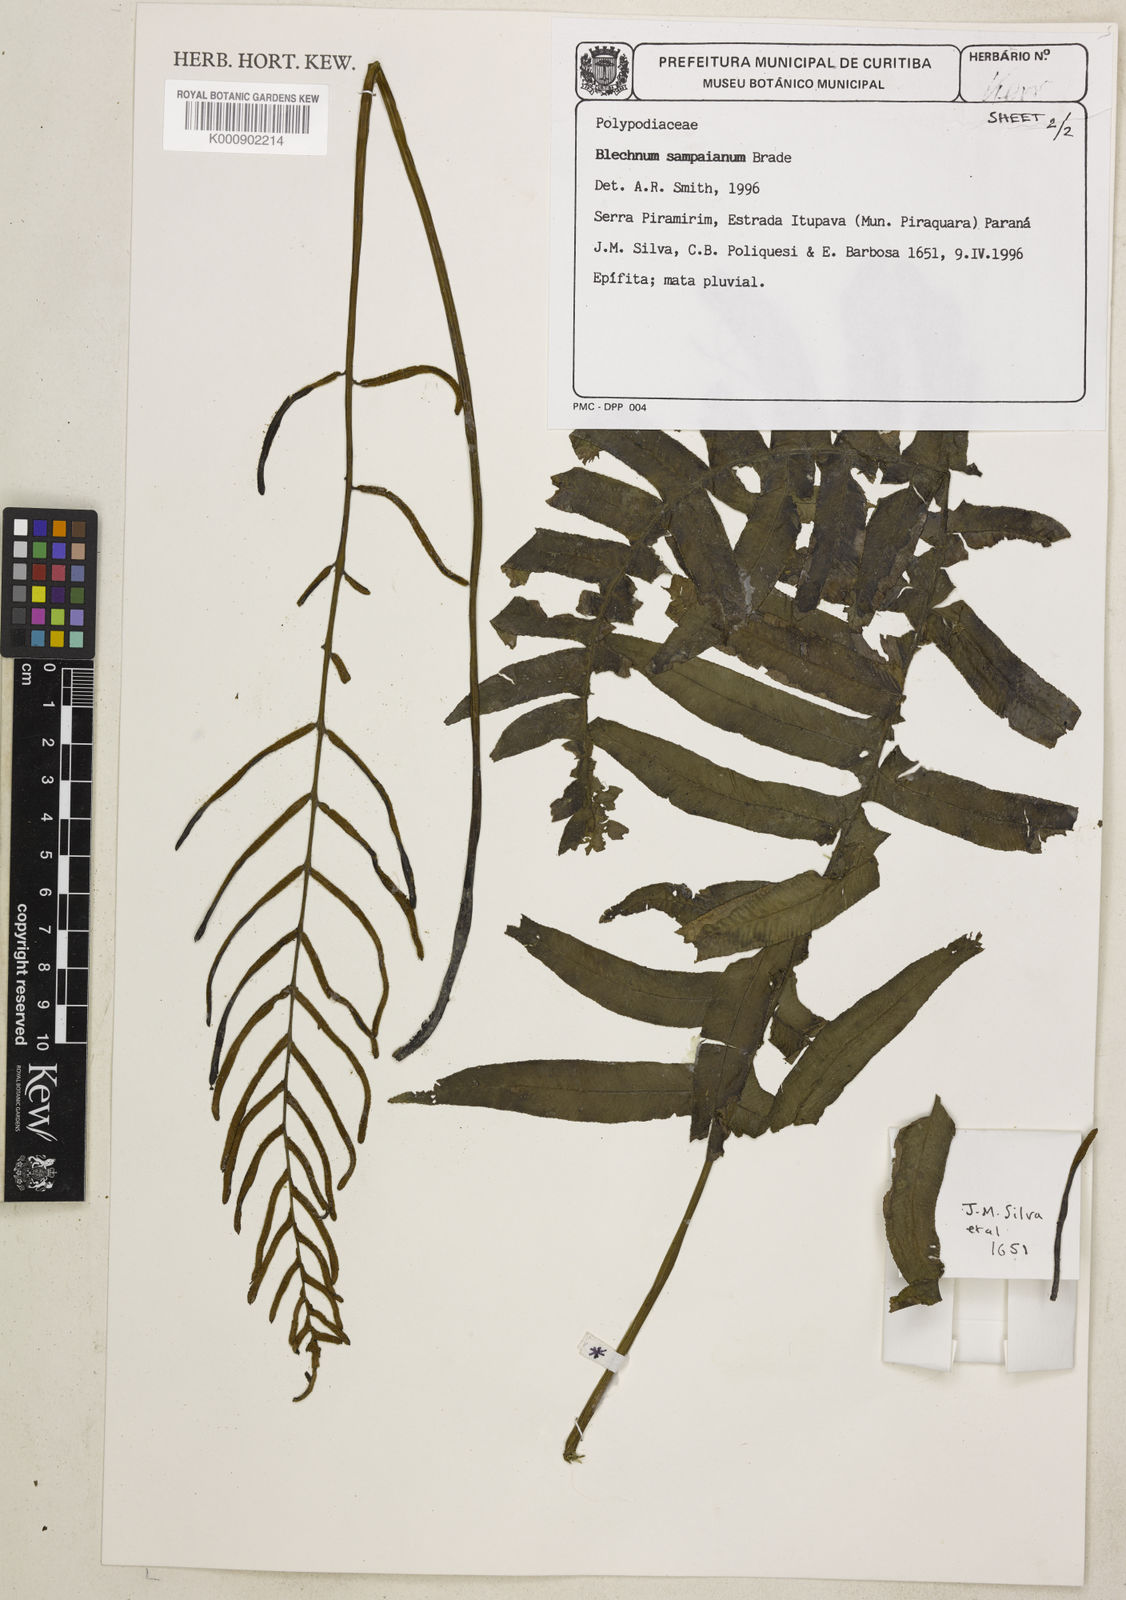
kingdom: Plantae
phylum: Tracheophyta
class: Polypodiopsida
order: Polypodiales
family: Blechnaceae
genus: Lomariocycas
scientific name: Lomariocycas schomburgkii
